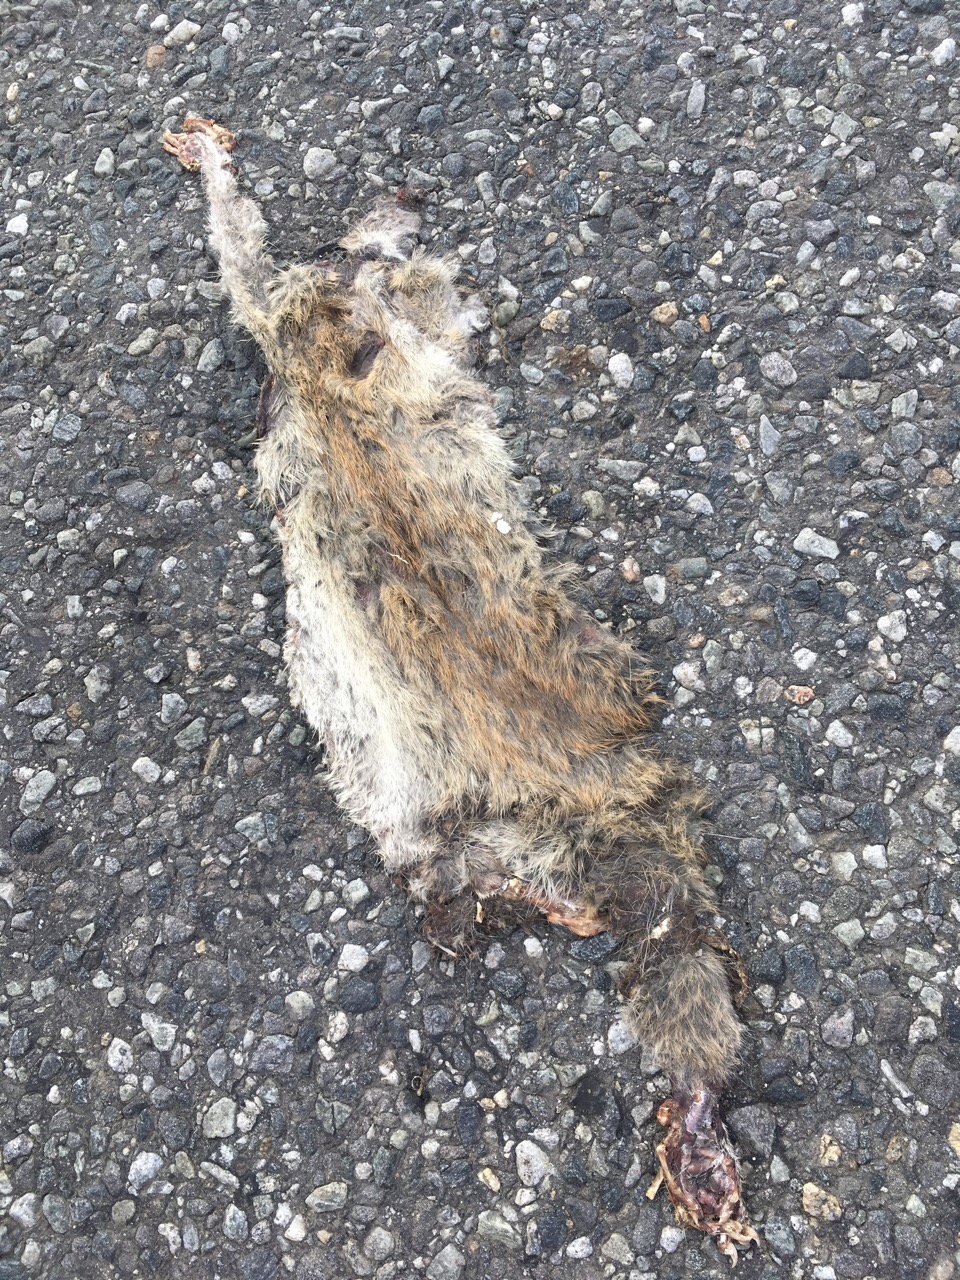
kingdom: Animalia
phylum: Chordata
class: Mammalia
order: Rodentia
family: Muridae
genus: Rattus
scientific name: Rattus
